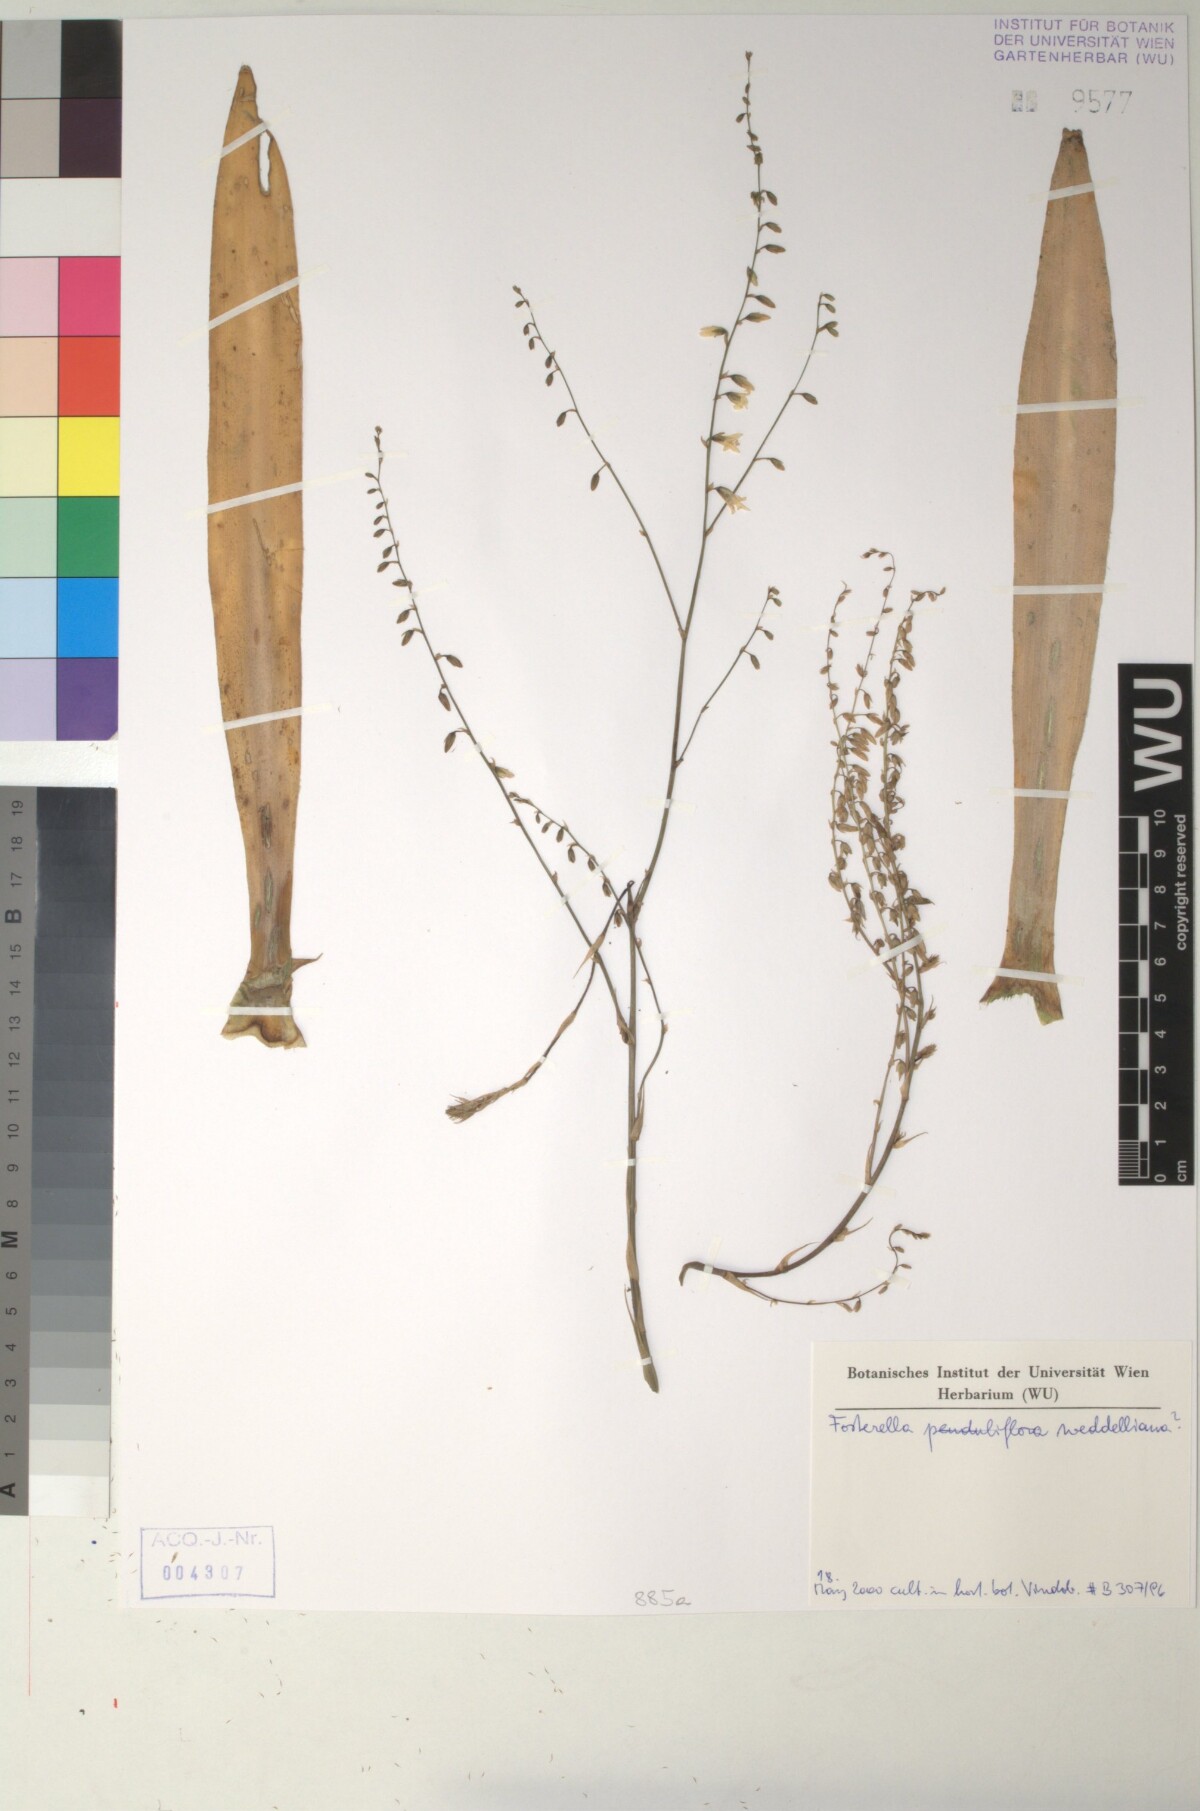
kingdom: Plantae
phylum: Tracheophyta
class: Liliopsida
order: Poales
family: Bromeliaceae
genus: Fosterella
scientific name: Fosterella penduliflora
